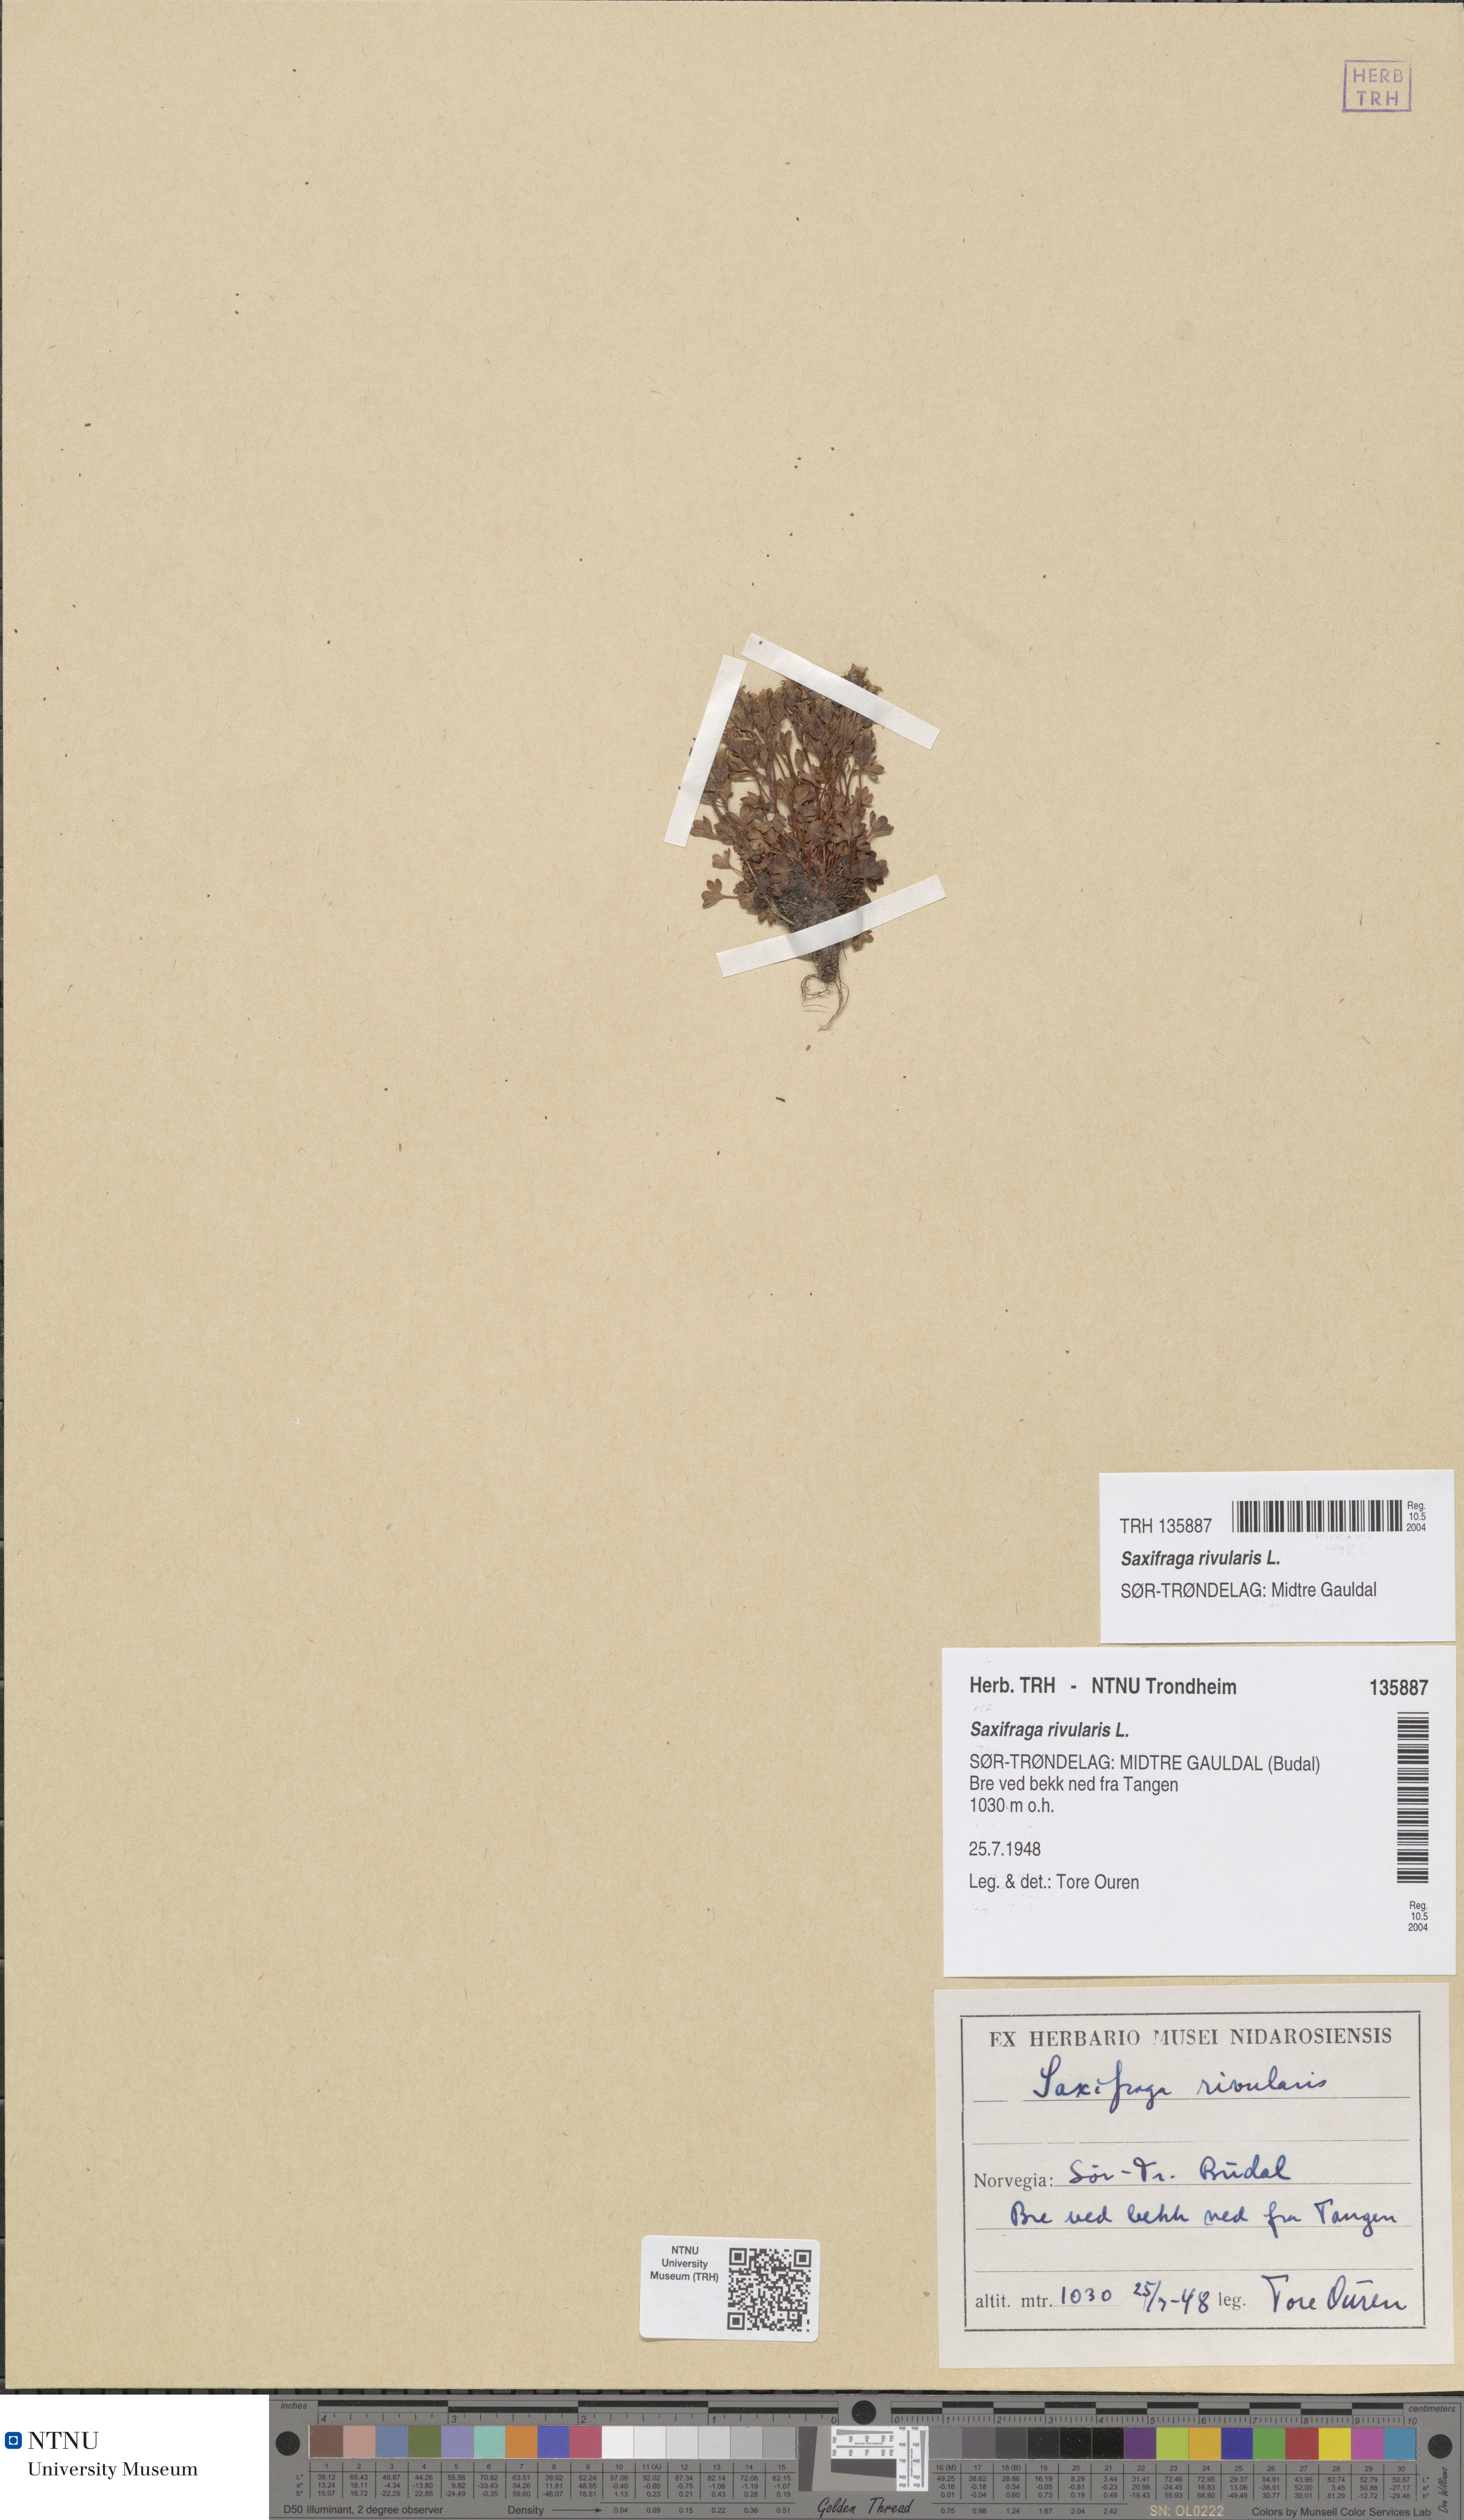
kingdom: Plantae
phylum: Tracheophyta
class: Magnoliopsida
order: Saxifragales
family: Saxifragaceae
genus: Saxifraga
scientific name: Saxifraga rivularis
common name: Highland saxifrage
